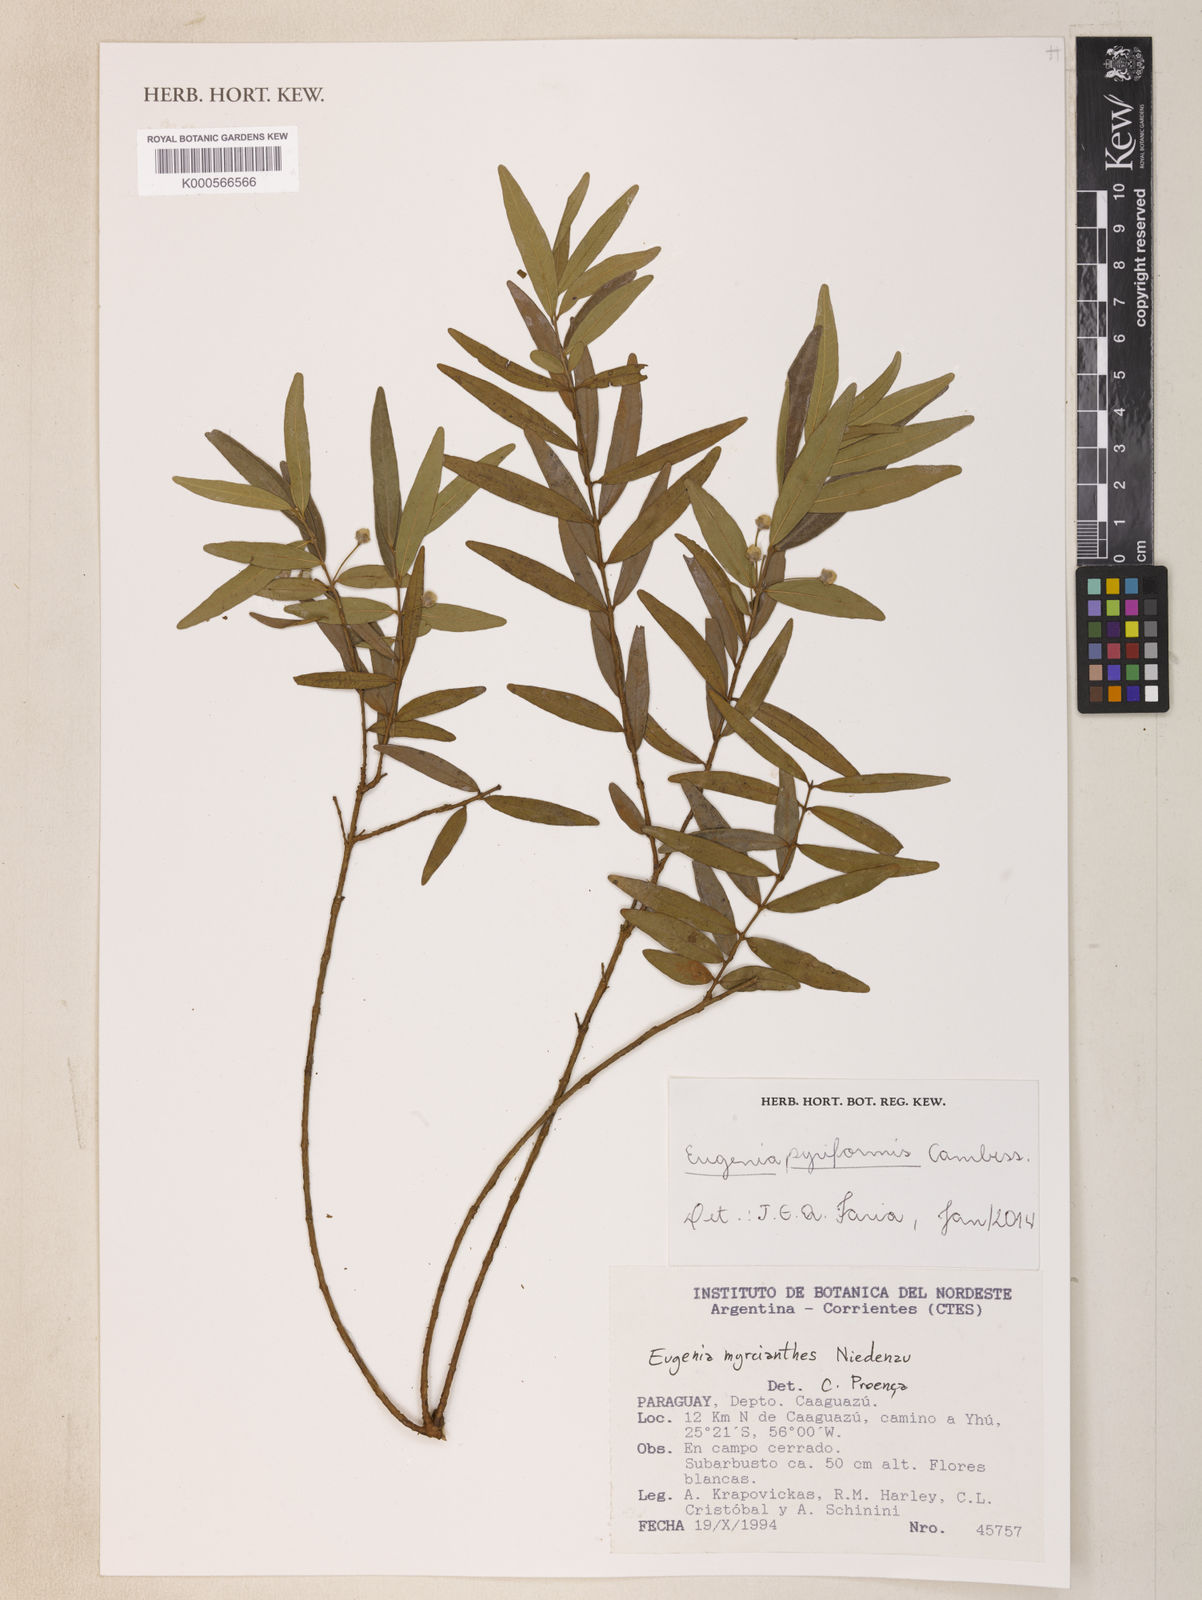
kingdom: Plantae
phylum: Tracheophyta
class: Magnoliopsida
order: Myrtales
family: Myrtaceae
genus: Eugenia
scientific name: Eugenia pyriformis
